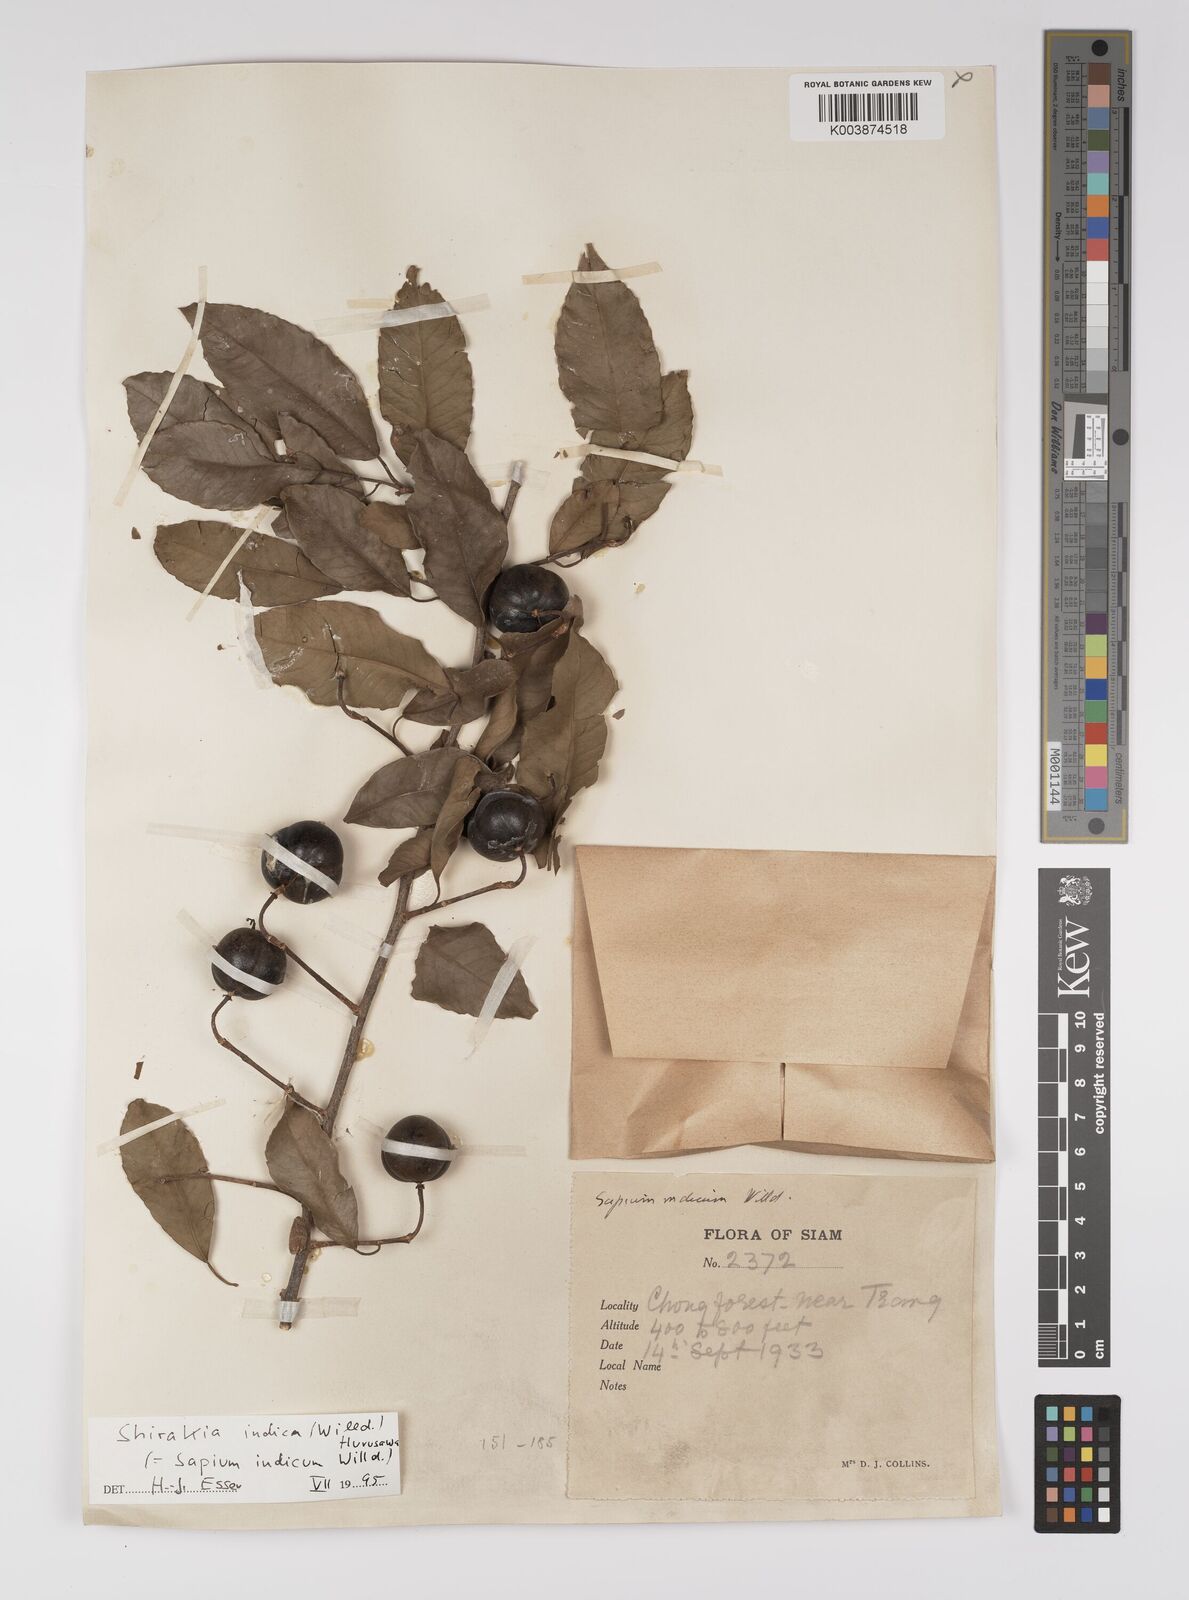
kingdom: Plantae
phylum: Tracheophyta
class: Magnoliopsida
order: Malpighiales
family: Euphorbiaceae
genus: Shirakiopsis
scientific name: Shirakiopsis indica
